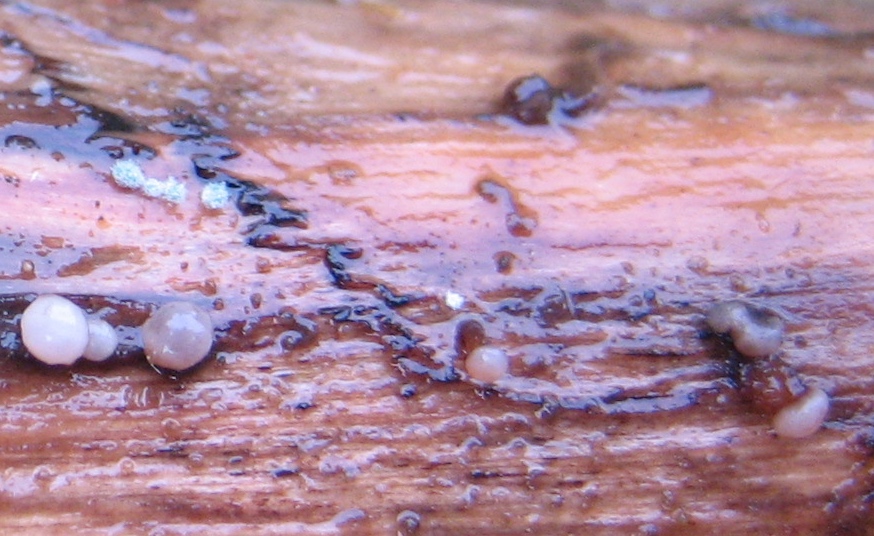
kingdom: Fungi
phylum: Ascomycota
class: Leotiomycetes
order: Helotiales
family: Gelatinodiscaceae
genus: Ascocoryne
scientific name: Ascocoryne albida
